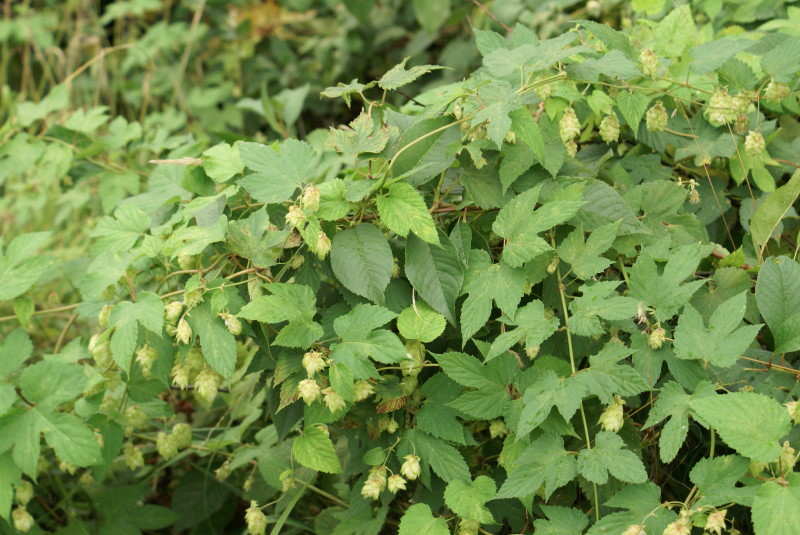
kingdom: Plantae
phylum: Tracheophyta
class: Magnoliopsida
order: Rosales
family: Cannabaceae
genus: Humulus
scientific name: Humulus lupulus
